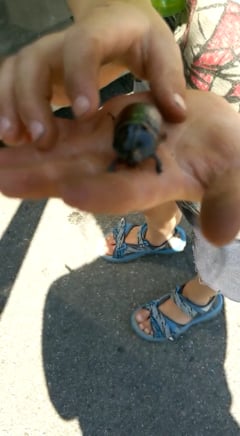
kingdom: Animalia
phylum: Arthropoda
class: Insecta
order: Coleoptera
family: Scarabaeidae
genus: Oryctes
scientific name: Oryctes nasicornis
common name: European rhinoceros beetle
